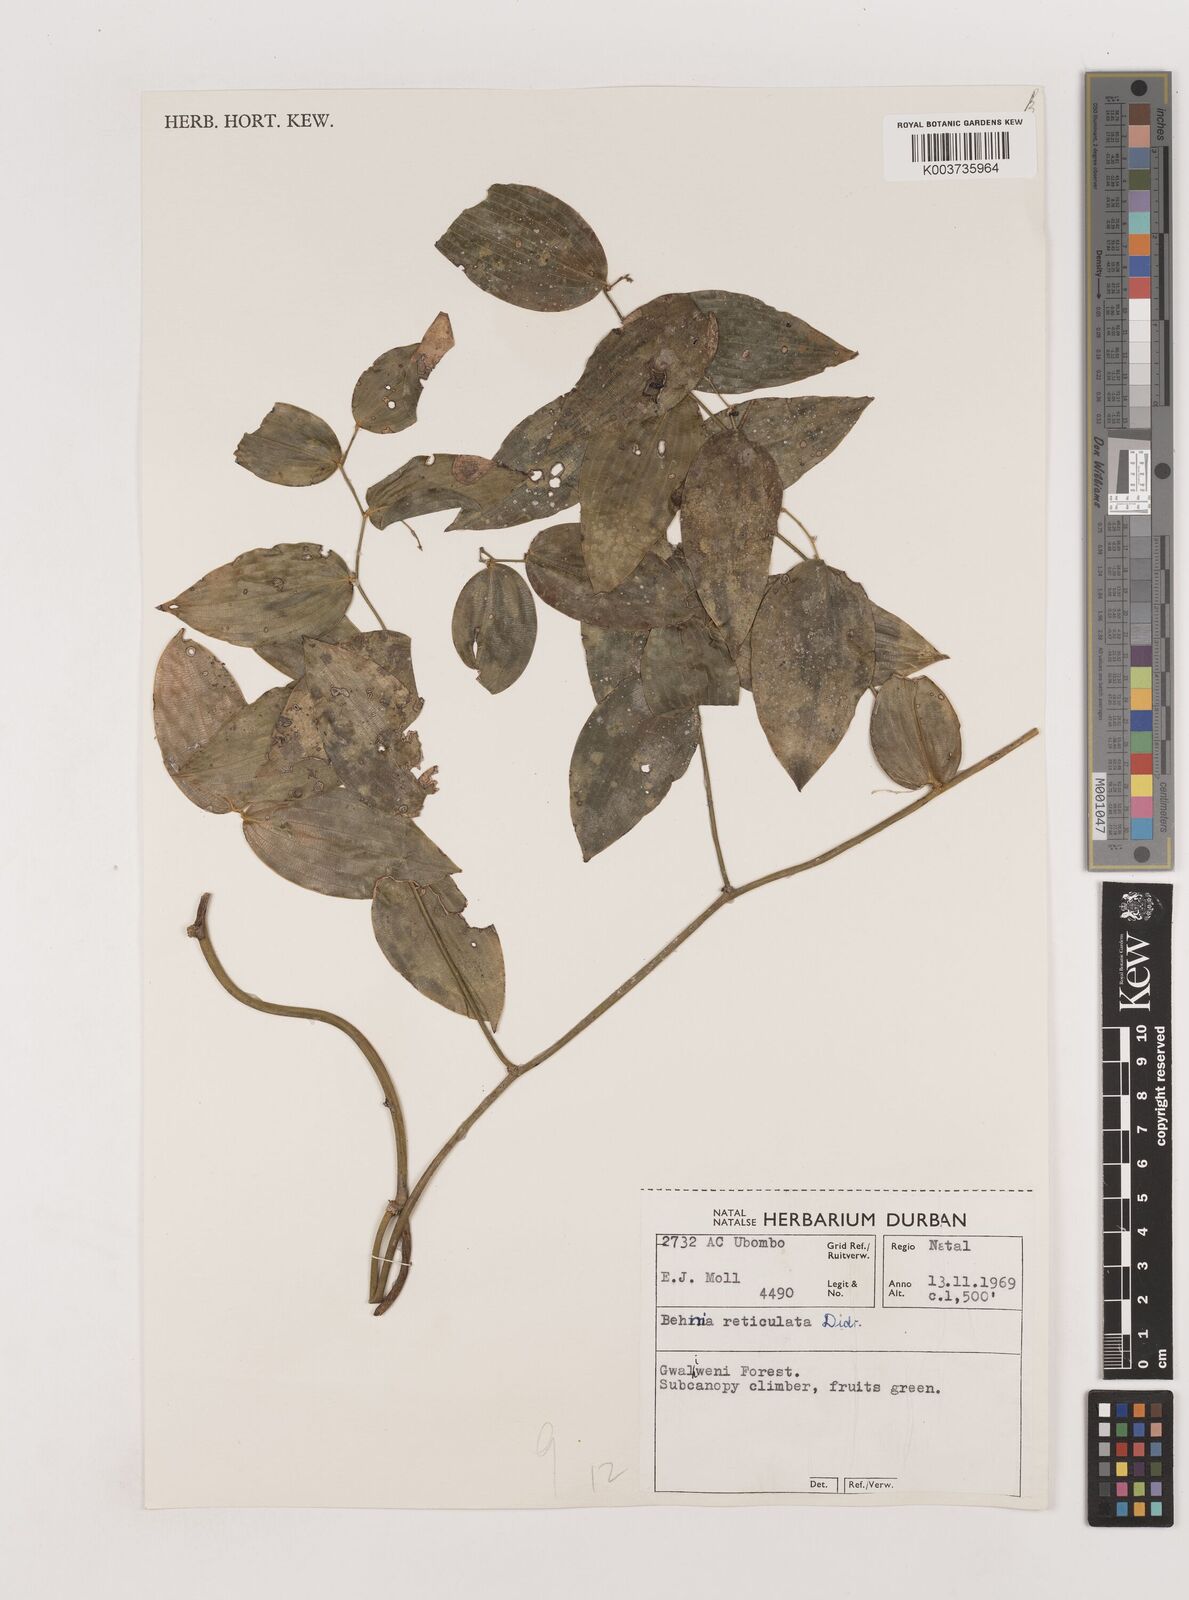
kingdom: Plantae
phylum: Tracheophyta
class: Liliopsida
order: Asparagales
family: Asparagaceae
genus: Behnia
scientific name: Behnia reticulata
